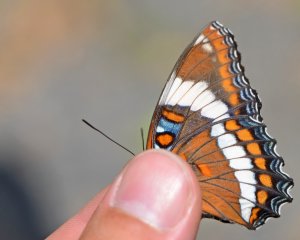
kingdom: Animalia
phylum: Arthropoda
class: Insecta
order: Lepidoptera
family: Nymphalidae
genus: Limenitis
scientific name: Limenitis arthemis
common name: Red-spotted Admiral
